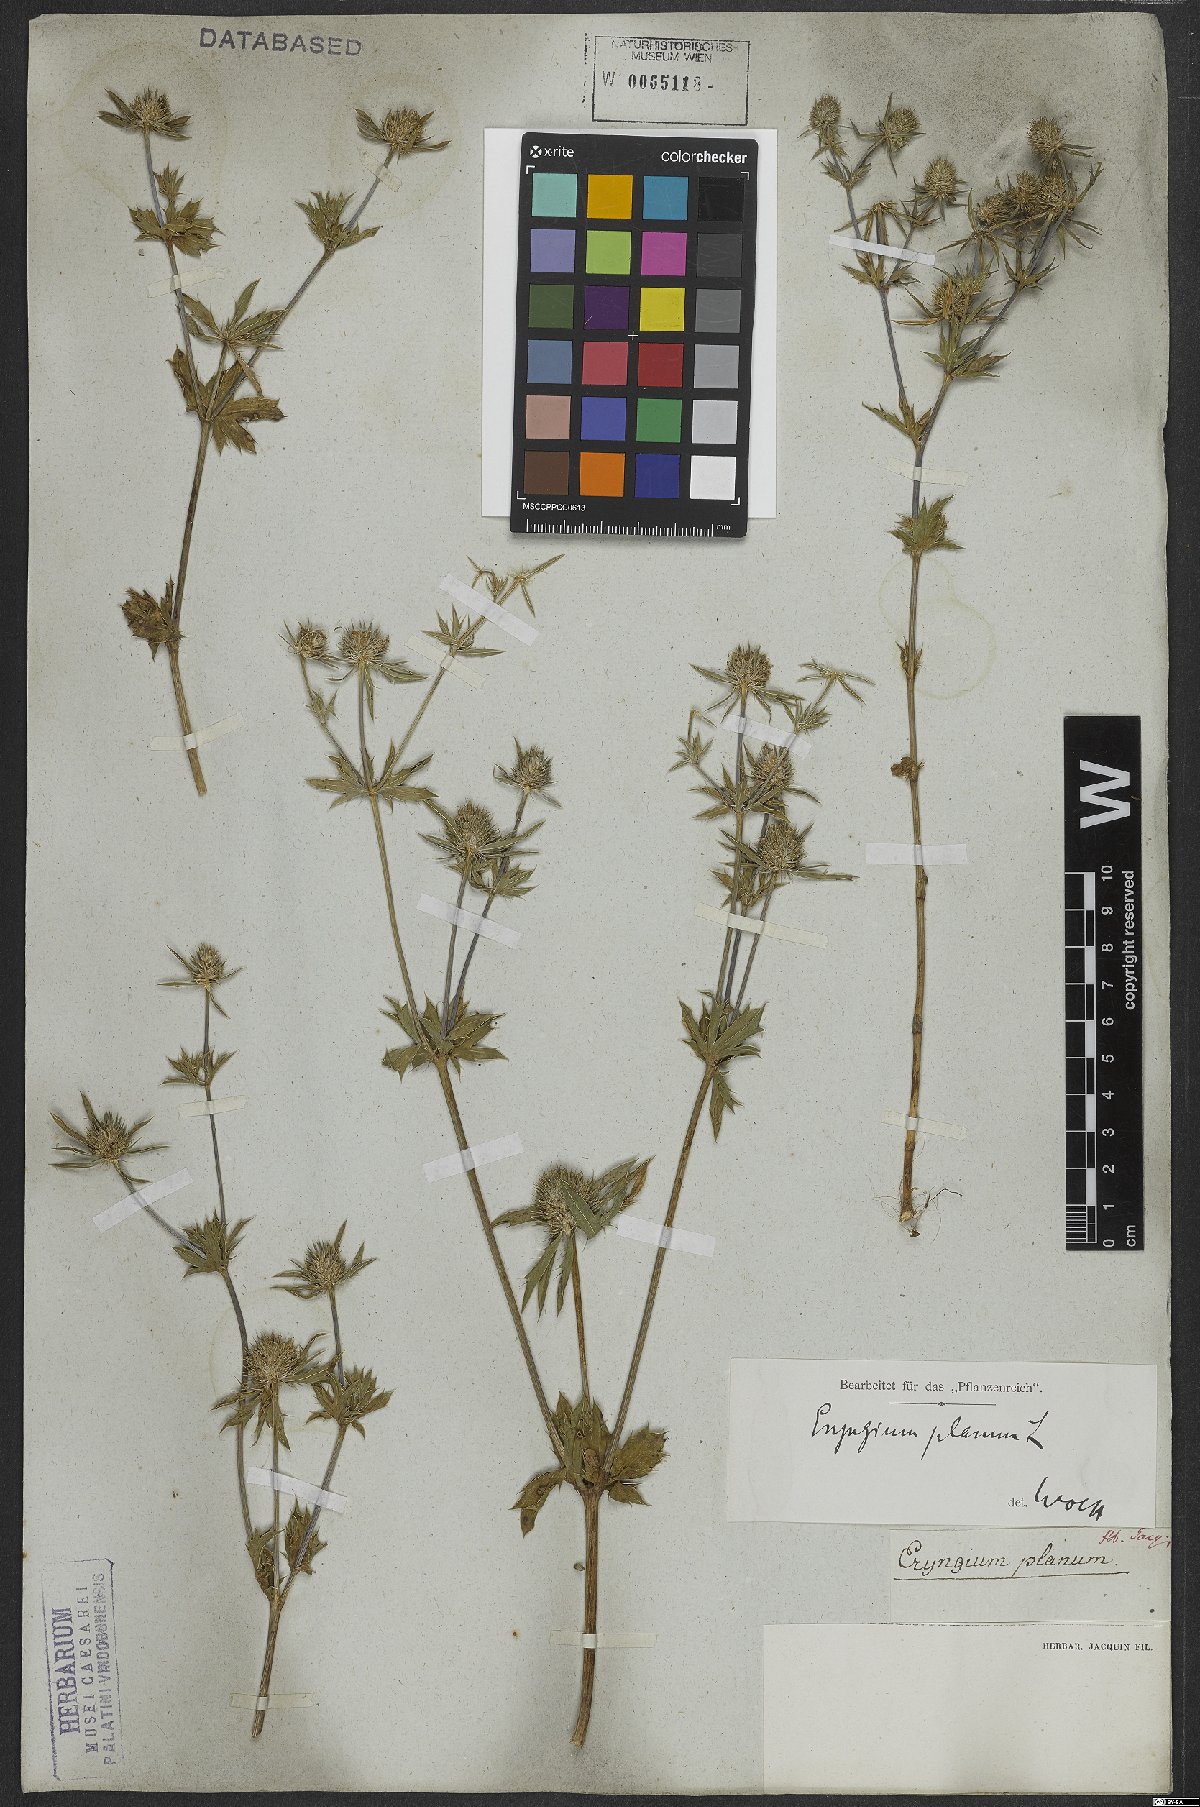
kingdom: Plantae
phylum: Tracheophyta
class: Magnoliopsida
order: Apiales
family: Apiaceae
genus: Eryngium
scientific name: Eryngium planum
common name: Blue eryngo
